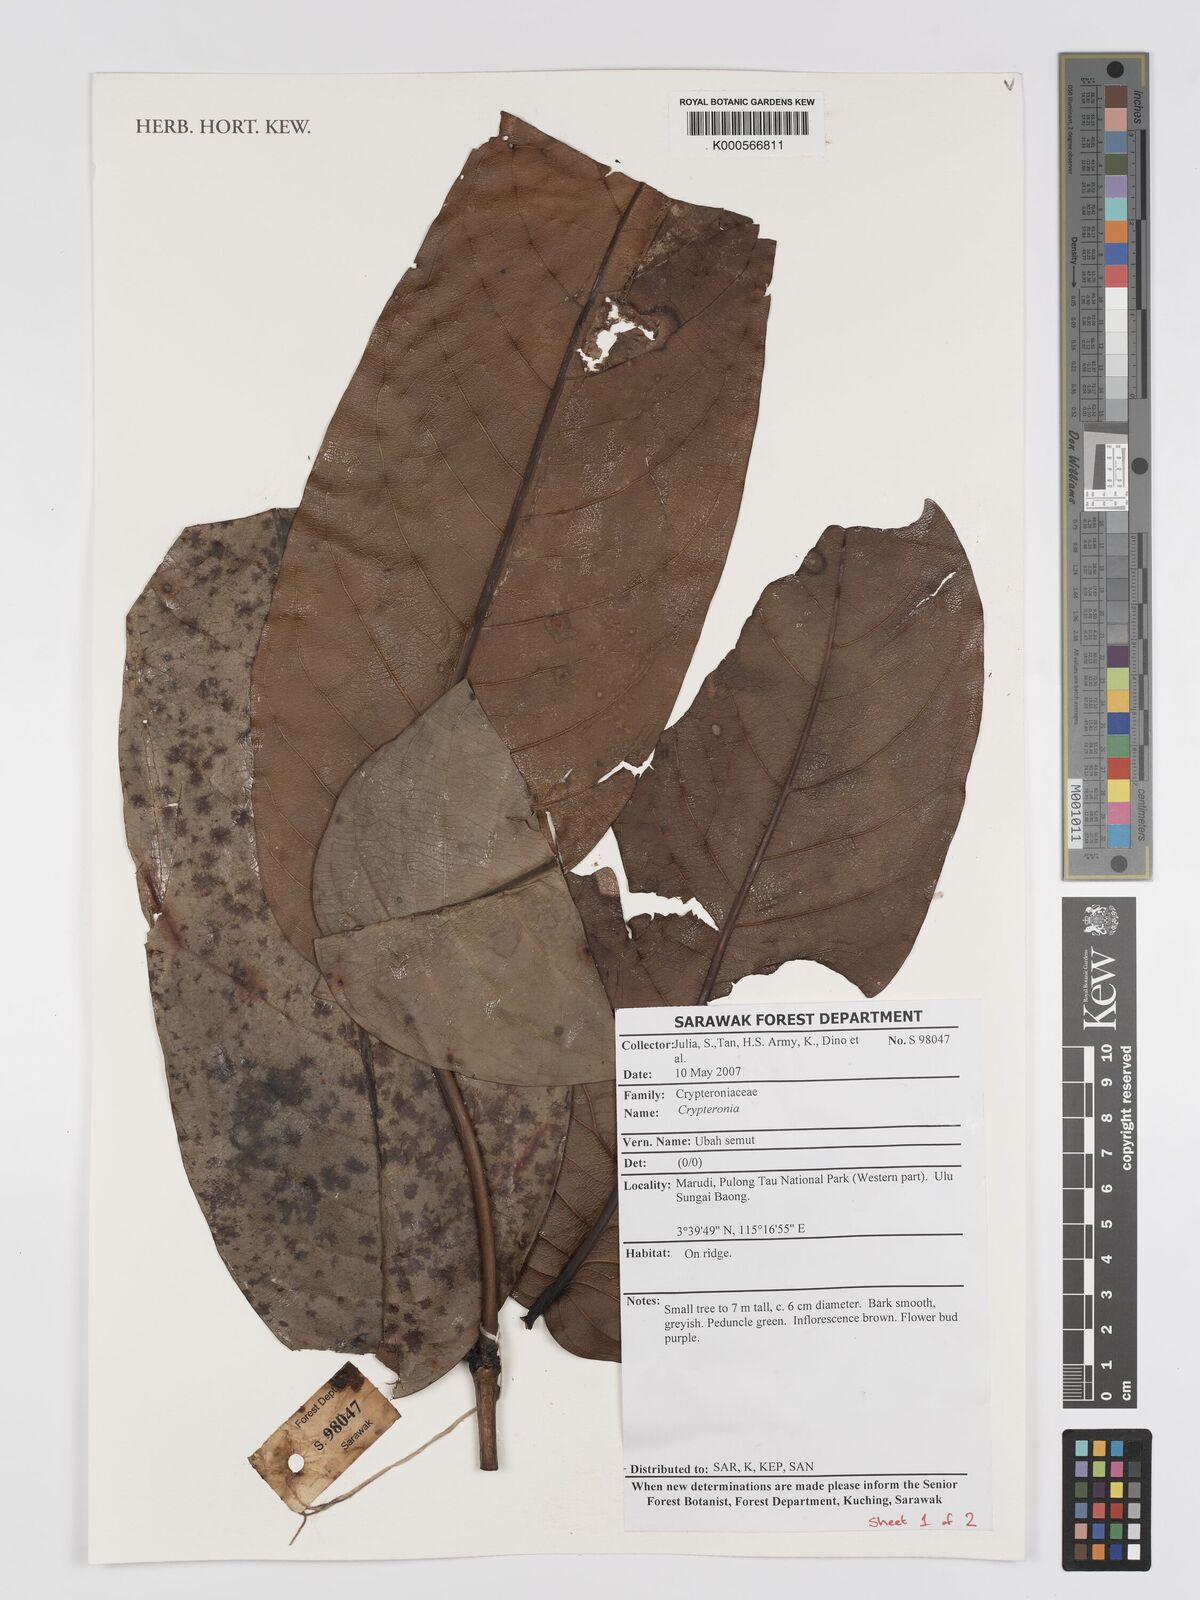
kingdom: Plantae
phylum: Tracheophyta
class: Magnoliopsida
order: Myrtales
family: Crypteroniaceae
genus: Crypteronia
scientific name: Crypteronia borneensis
